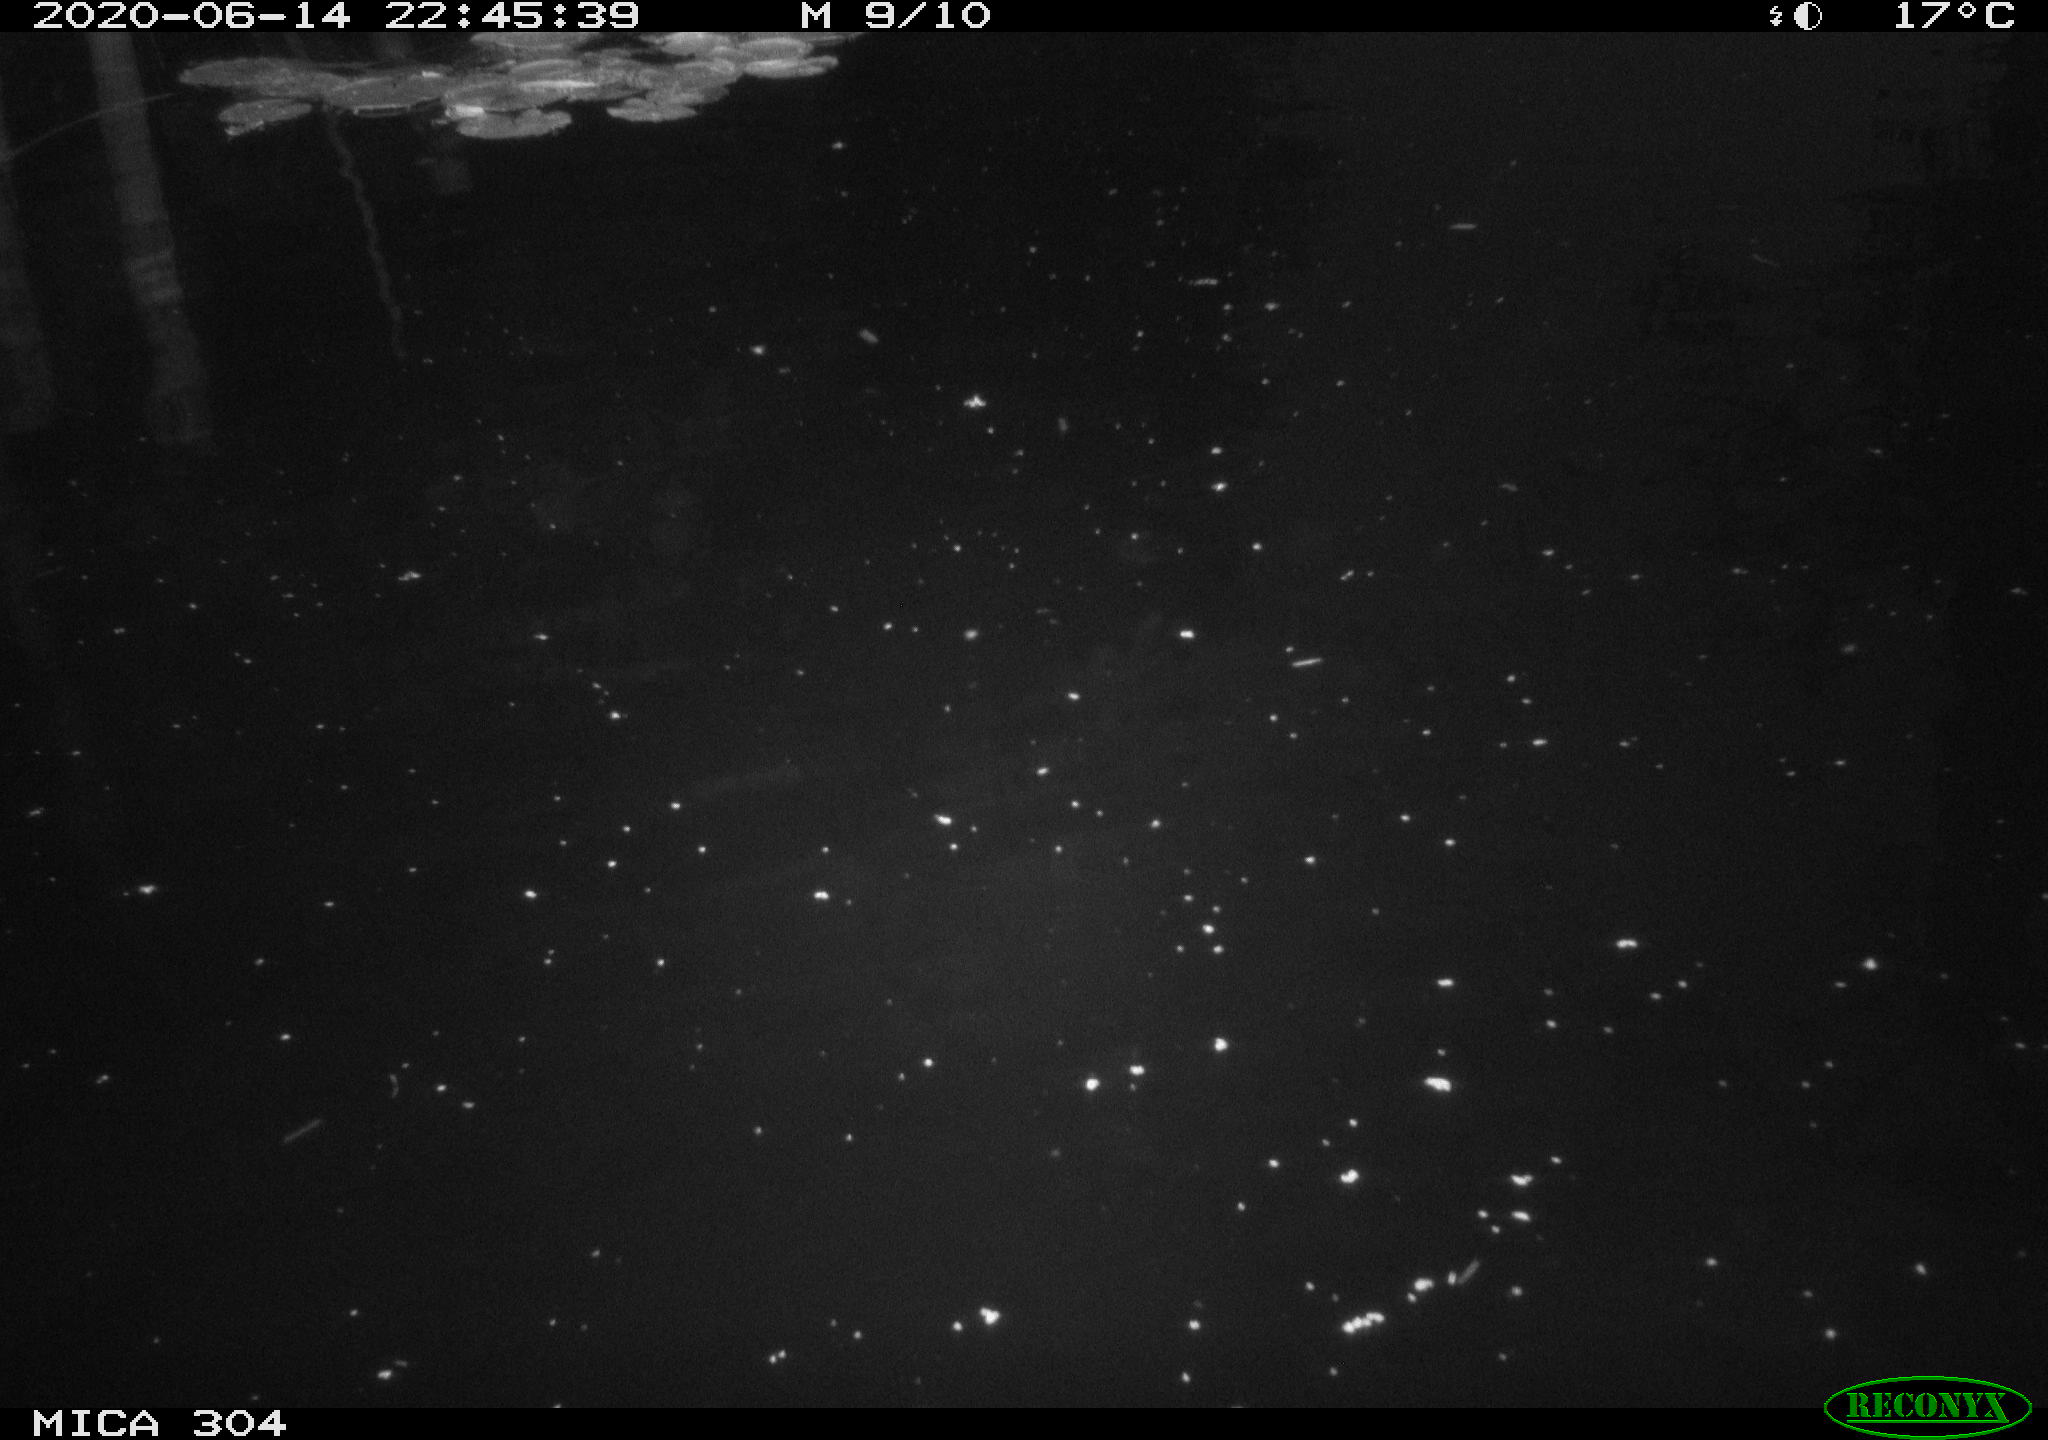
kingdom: Animalia
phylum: Chordata
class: Aves
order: Anseriformes
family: Anatidae
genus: Anas
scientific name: Anas platyrhynchos
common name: Mallard
